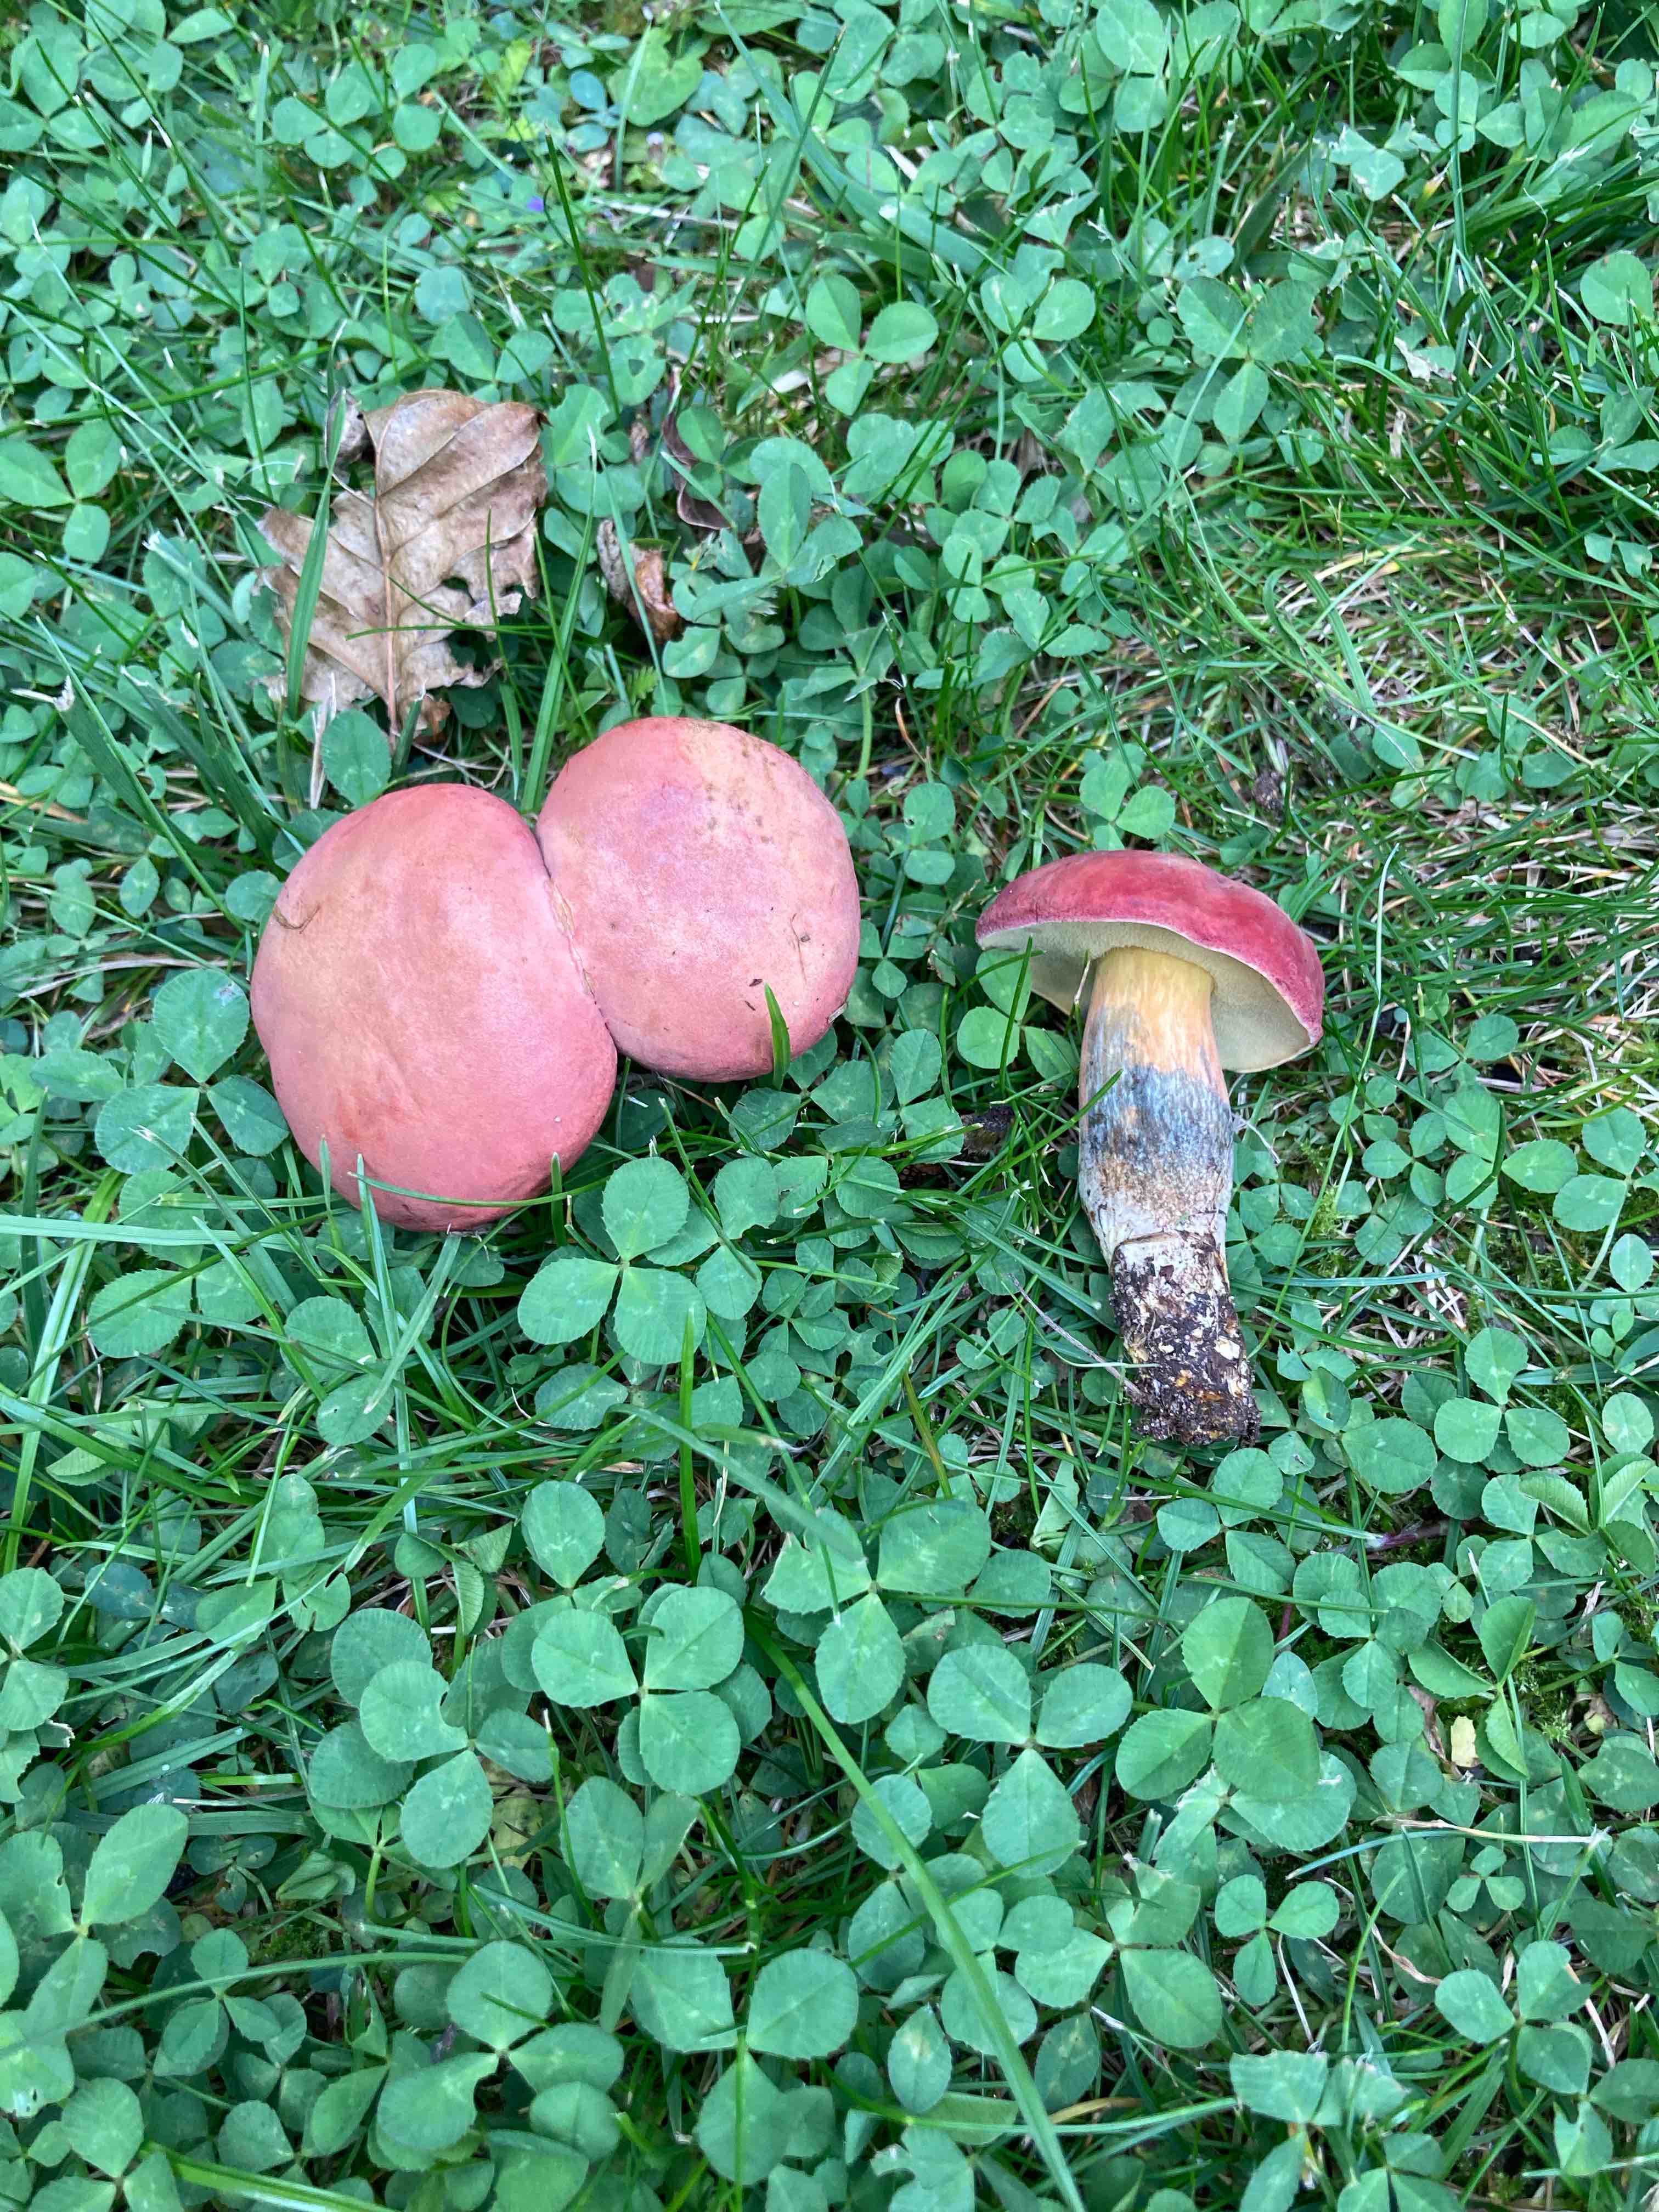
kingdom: Fungi
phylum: Basidiomycota
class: Agaricomycetes
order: Boletales
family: Boletaceae
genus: Hortiboletus
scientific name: Hortiboletus rubellus
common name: blodrød rørhat
